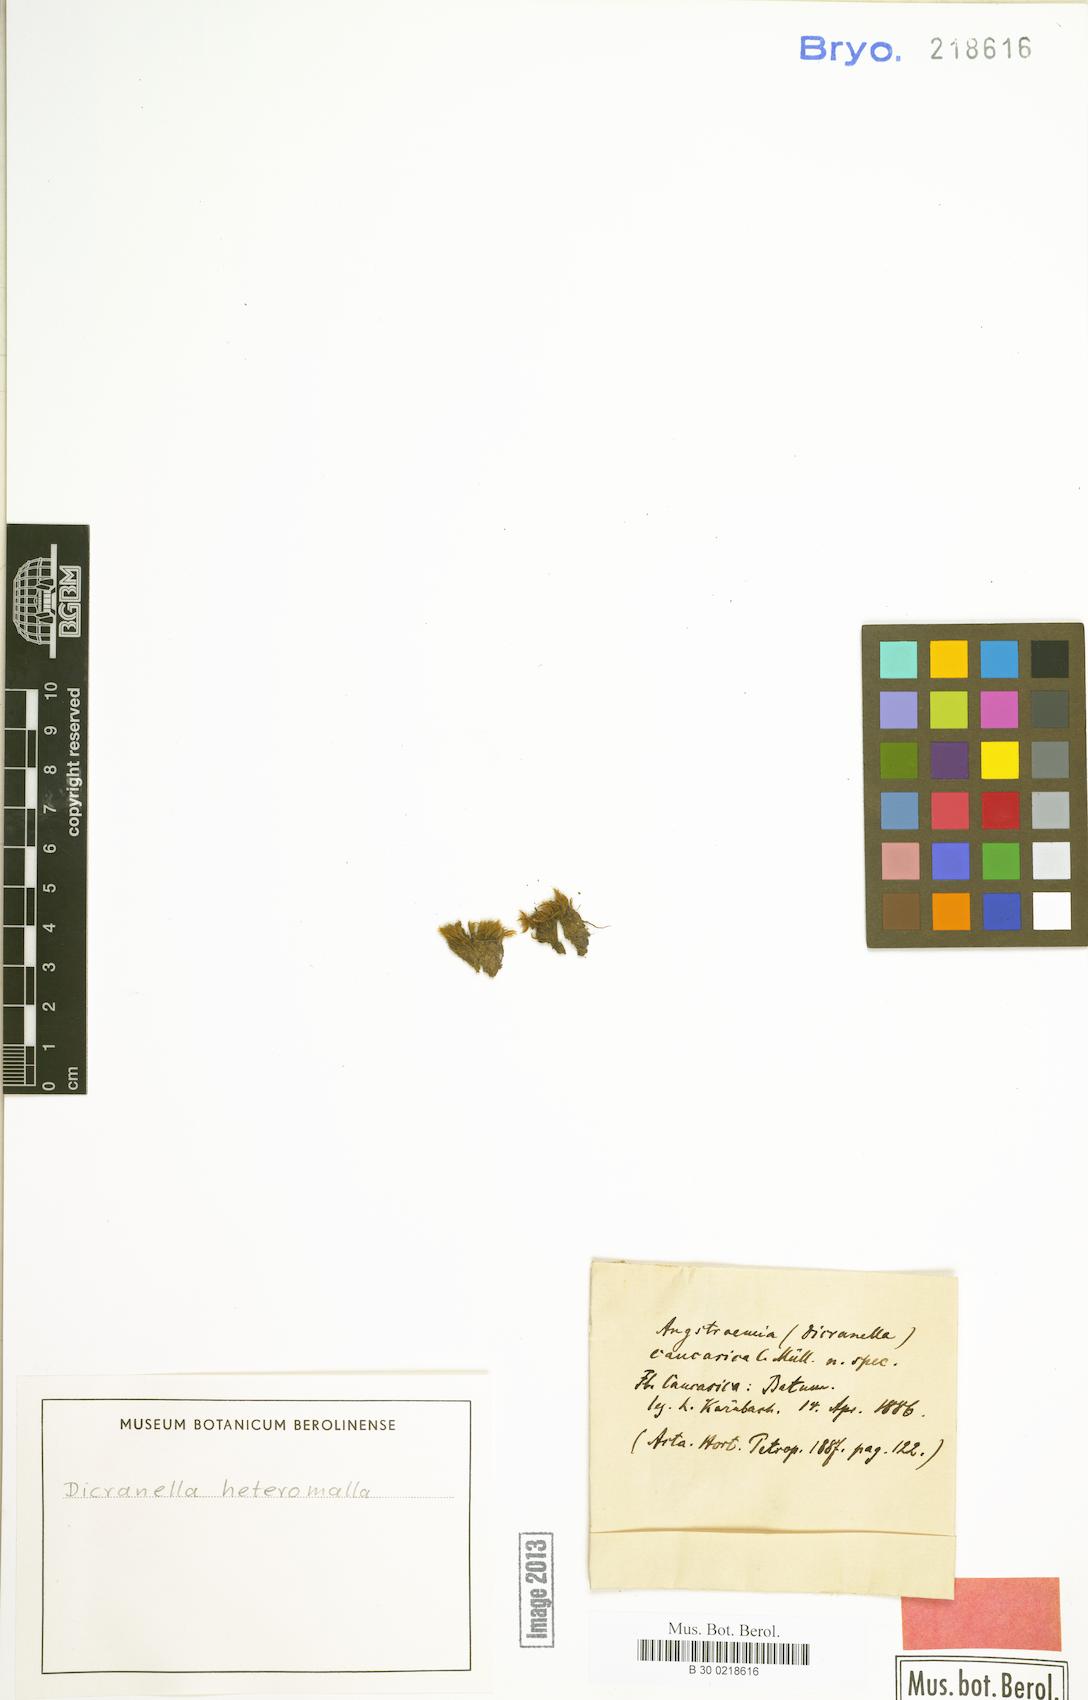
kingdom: Plantae
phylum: Bryophyta
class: Bryopsida
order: Dicranales
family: Dicranellaceae
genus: Dicranella
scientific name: Dicranella heteromalla
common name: Silky forklet moss
